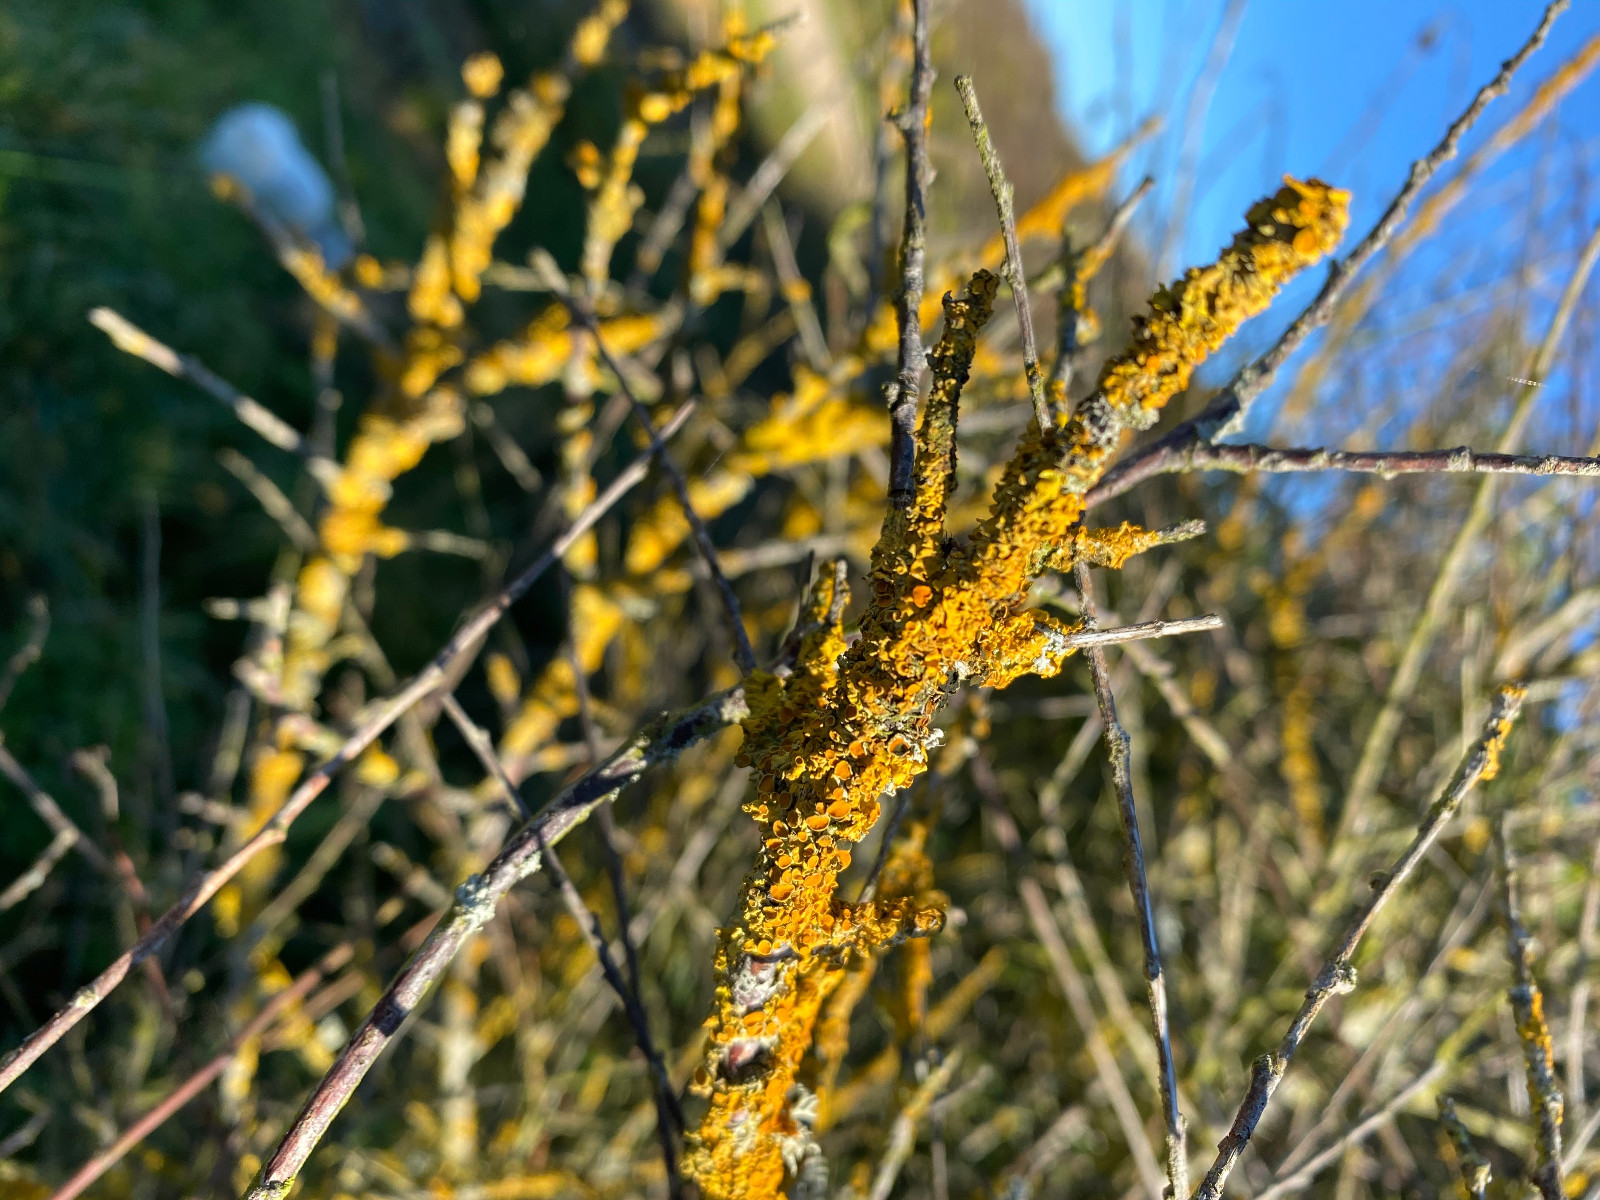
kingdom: Fungi
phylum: Ascomycota
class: Lecanoromycetes
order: Teloschistales
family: Teloschistaceae
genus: Xanthoria
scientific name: Xanthoria parietina
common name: almindelig væggelav
